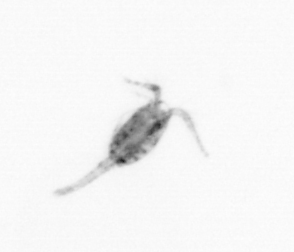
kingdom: Animalia
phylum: Arthropoda
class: Copepoda
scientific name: Copepoda
